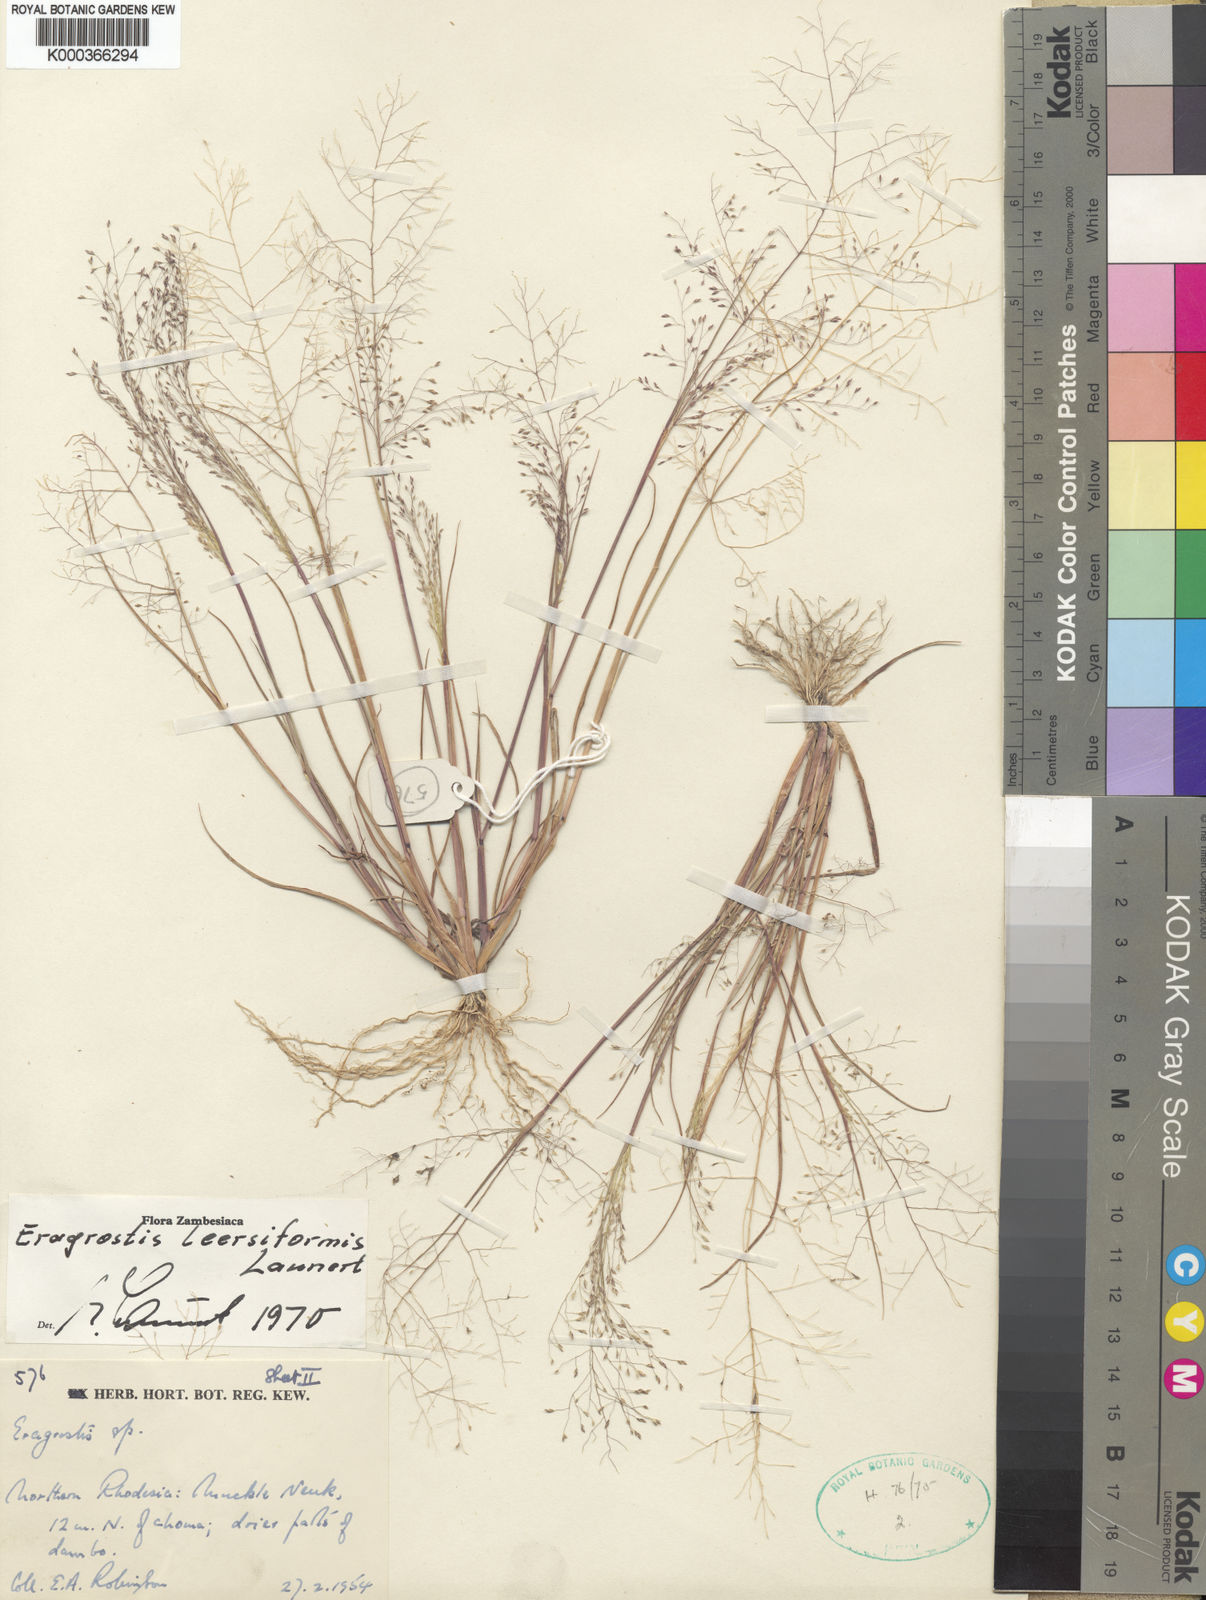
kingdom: Plantae
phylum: Tracheophyta
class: Liliopsida
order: Poales
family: Poaceae
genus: Eragrostis
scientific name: Eragrostis leersiiformis
